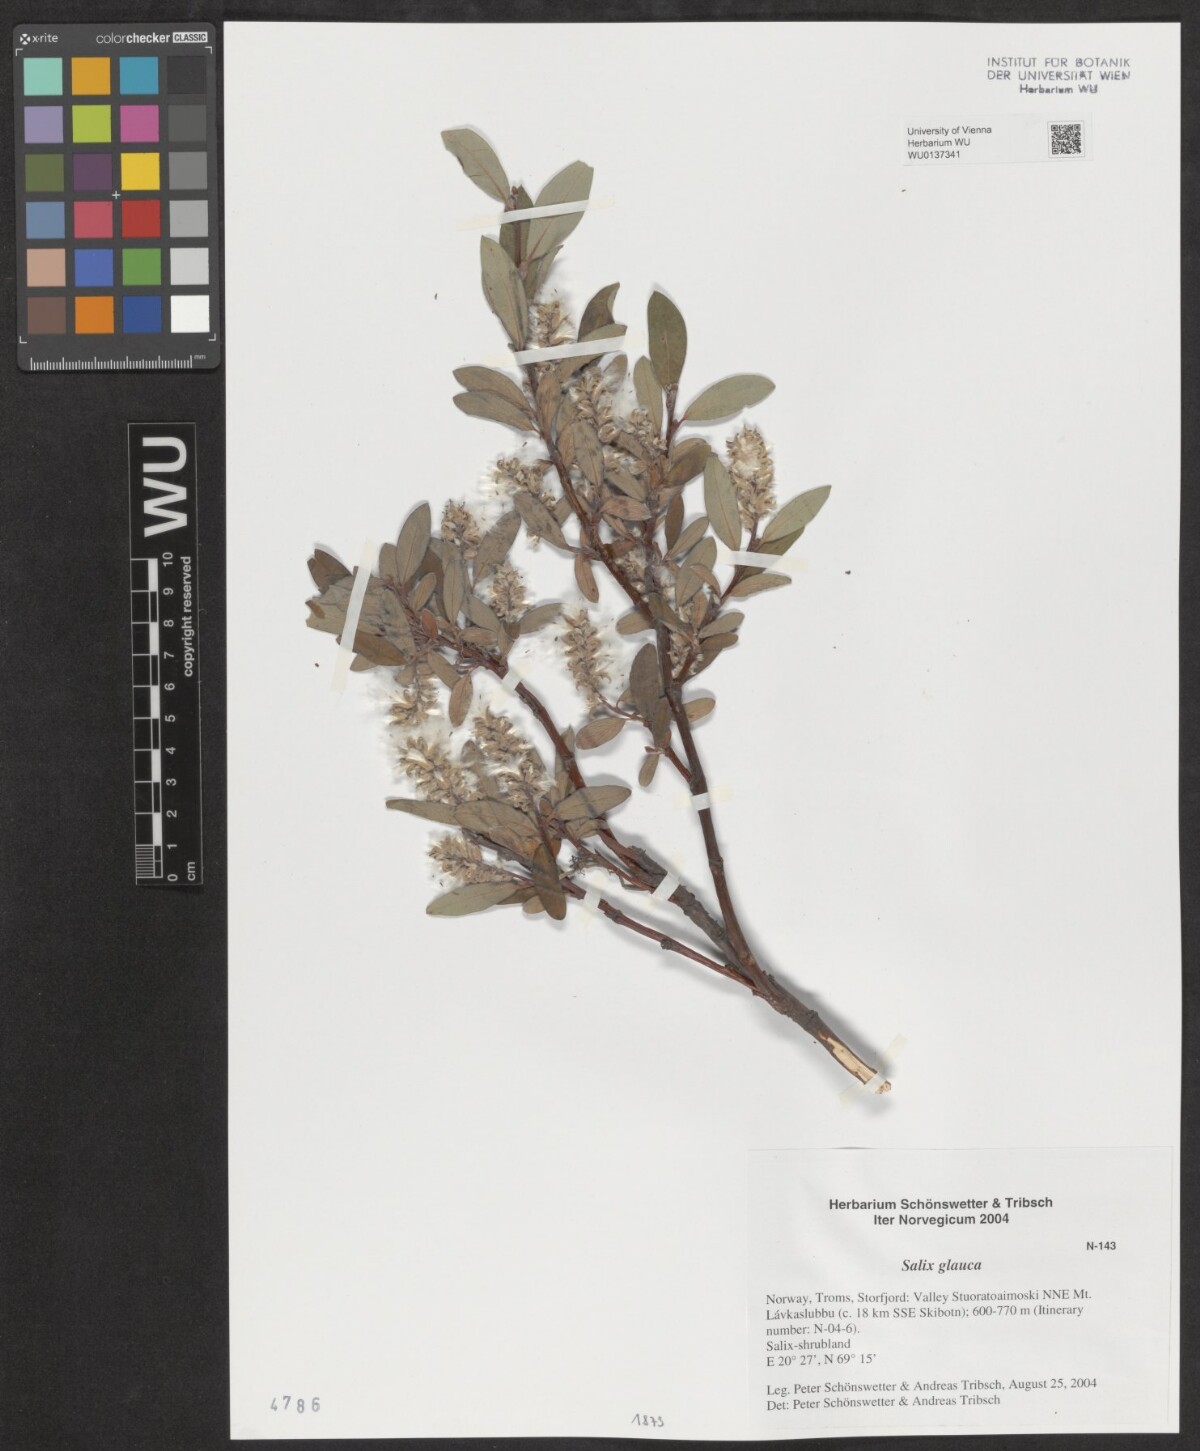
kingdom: Plantae
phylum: Tracheophyta
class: Magnoliopsida
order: Malpighiales
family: Salicaceae
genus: Salix
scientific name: Salix glauca
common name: Glaucous willow
